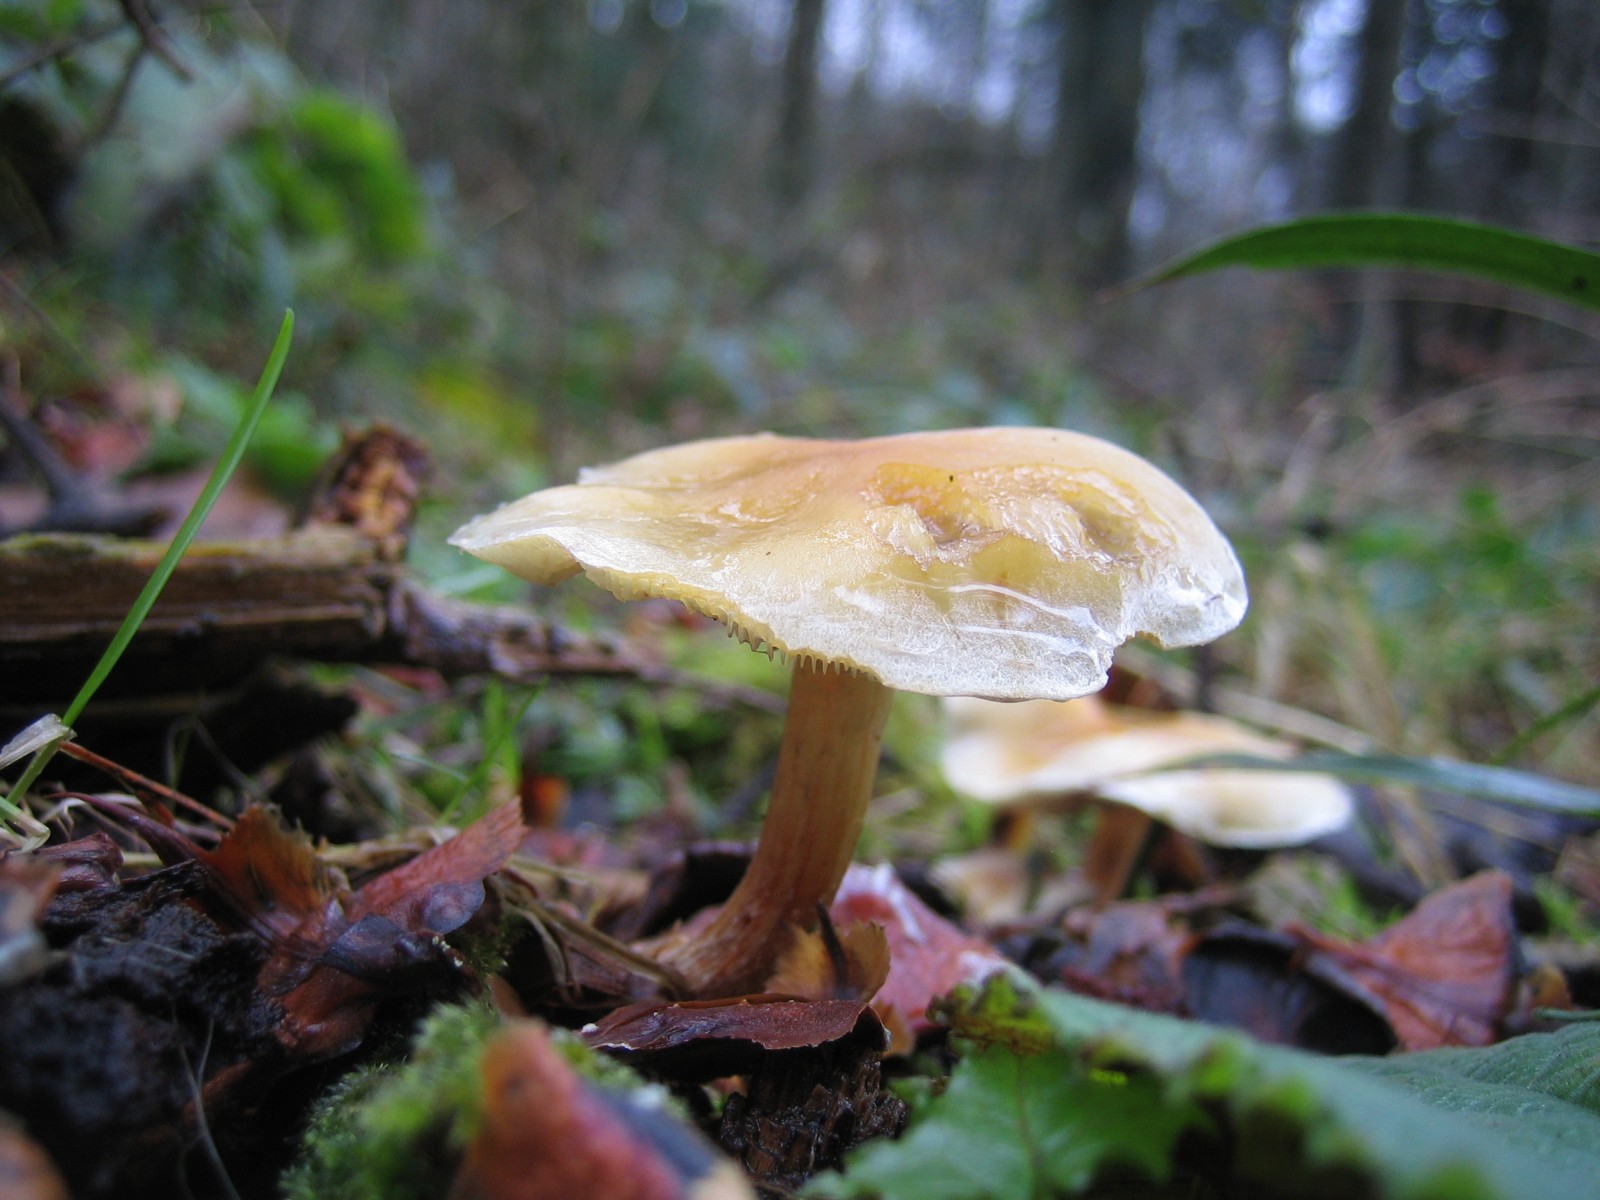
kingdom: Fungi
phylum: Basidiomycota
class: Agaricomycetes
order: Agaricales
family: Strophariaceae
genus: Hypholoma
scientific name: Hypholoma capnoides
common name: gran-svovlhat
